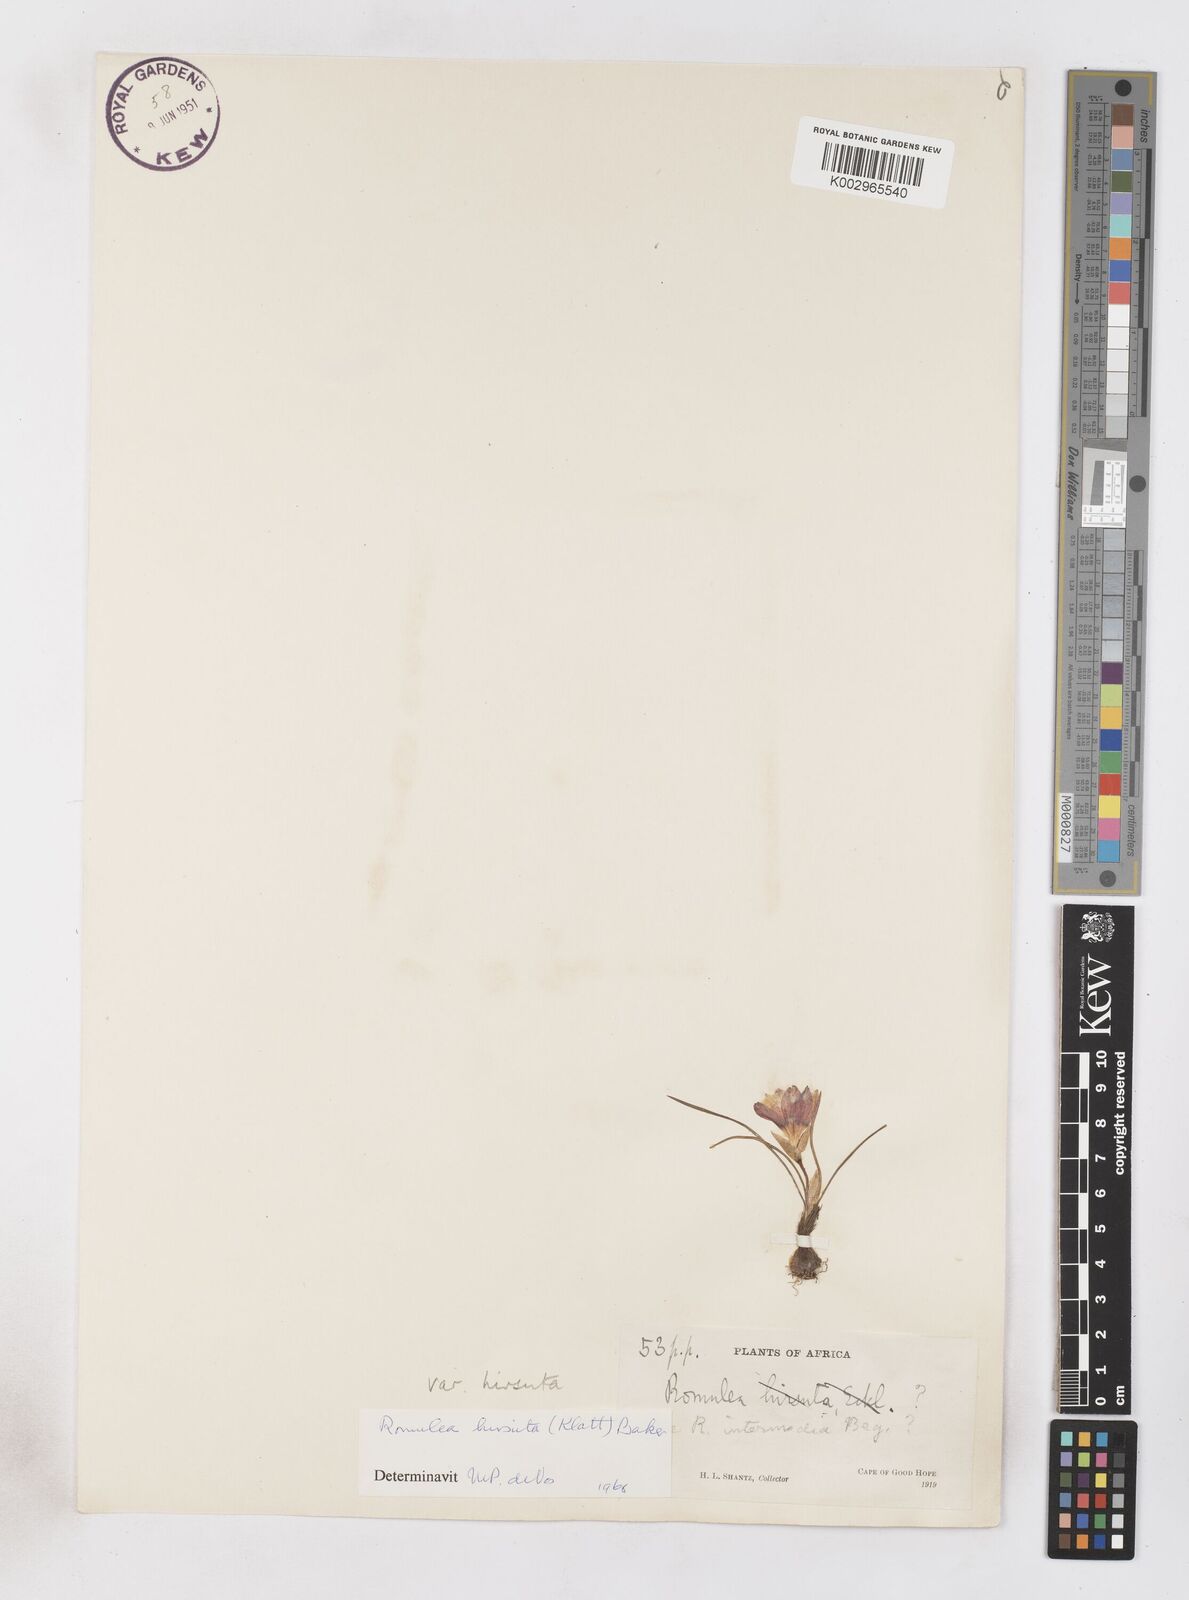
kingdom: Plantae
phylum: Tracheophyta
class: Liliopsida
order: Asparagales
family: Iridaceae
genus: Romulea
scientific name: Romulea hirsuta
